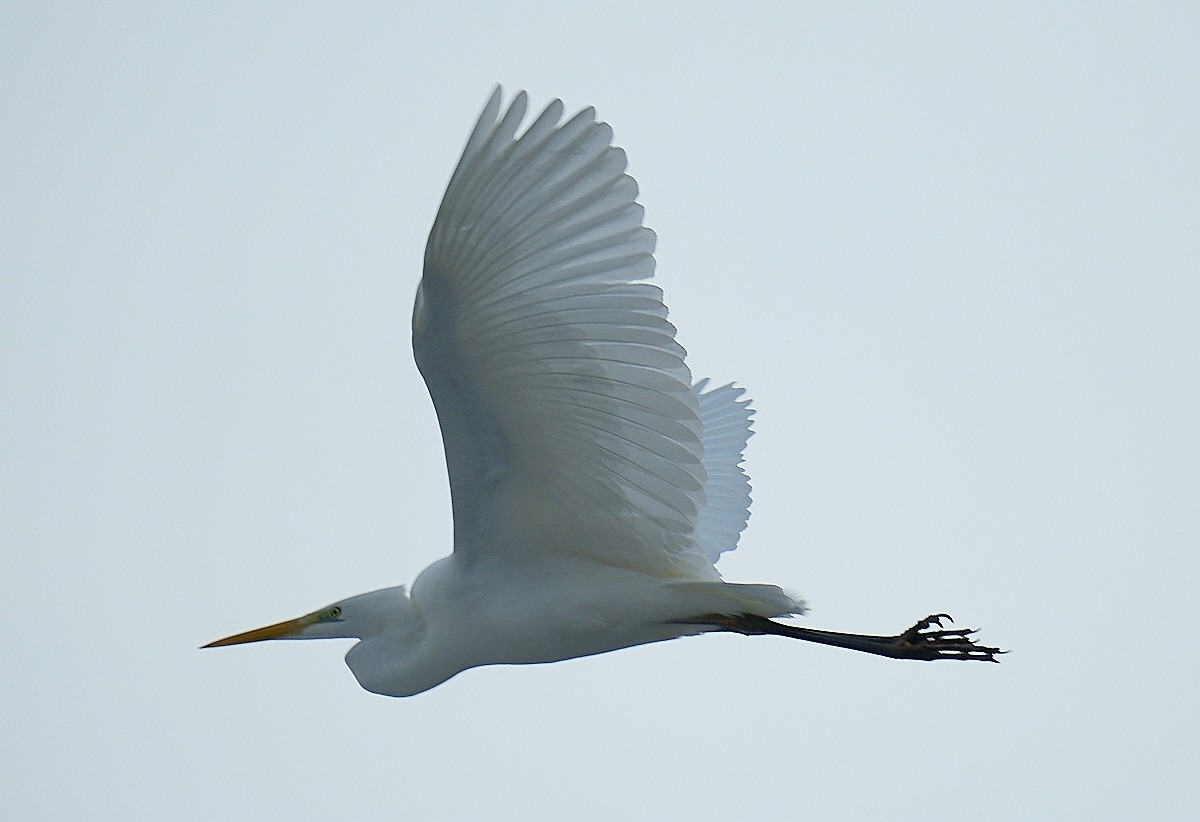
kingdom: Animalia
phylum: Chordata
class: Aves
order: Pelecaniformes
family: Ardeidae
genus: Ardea
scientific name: Ardea alba
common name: Sølvhejre
